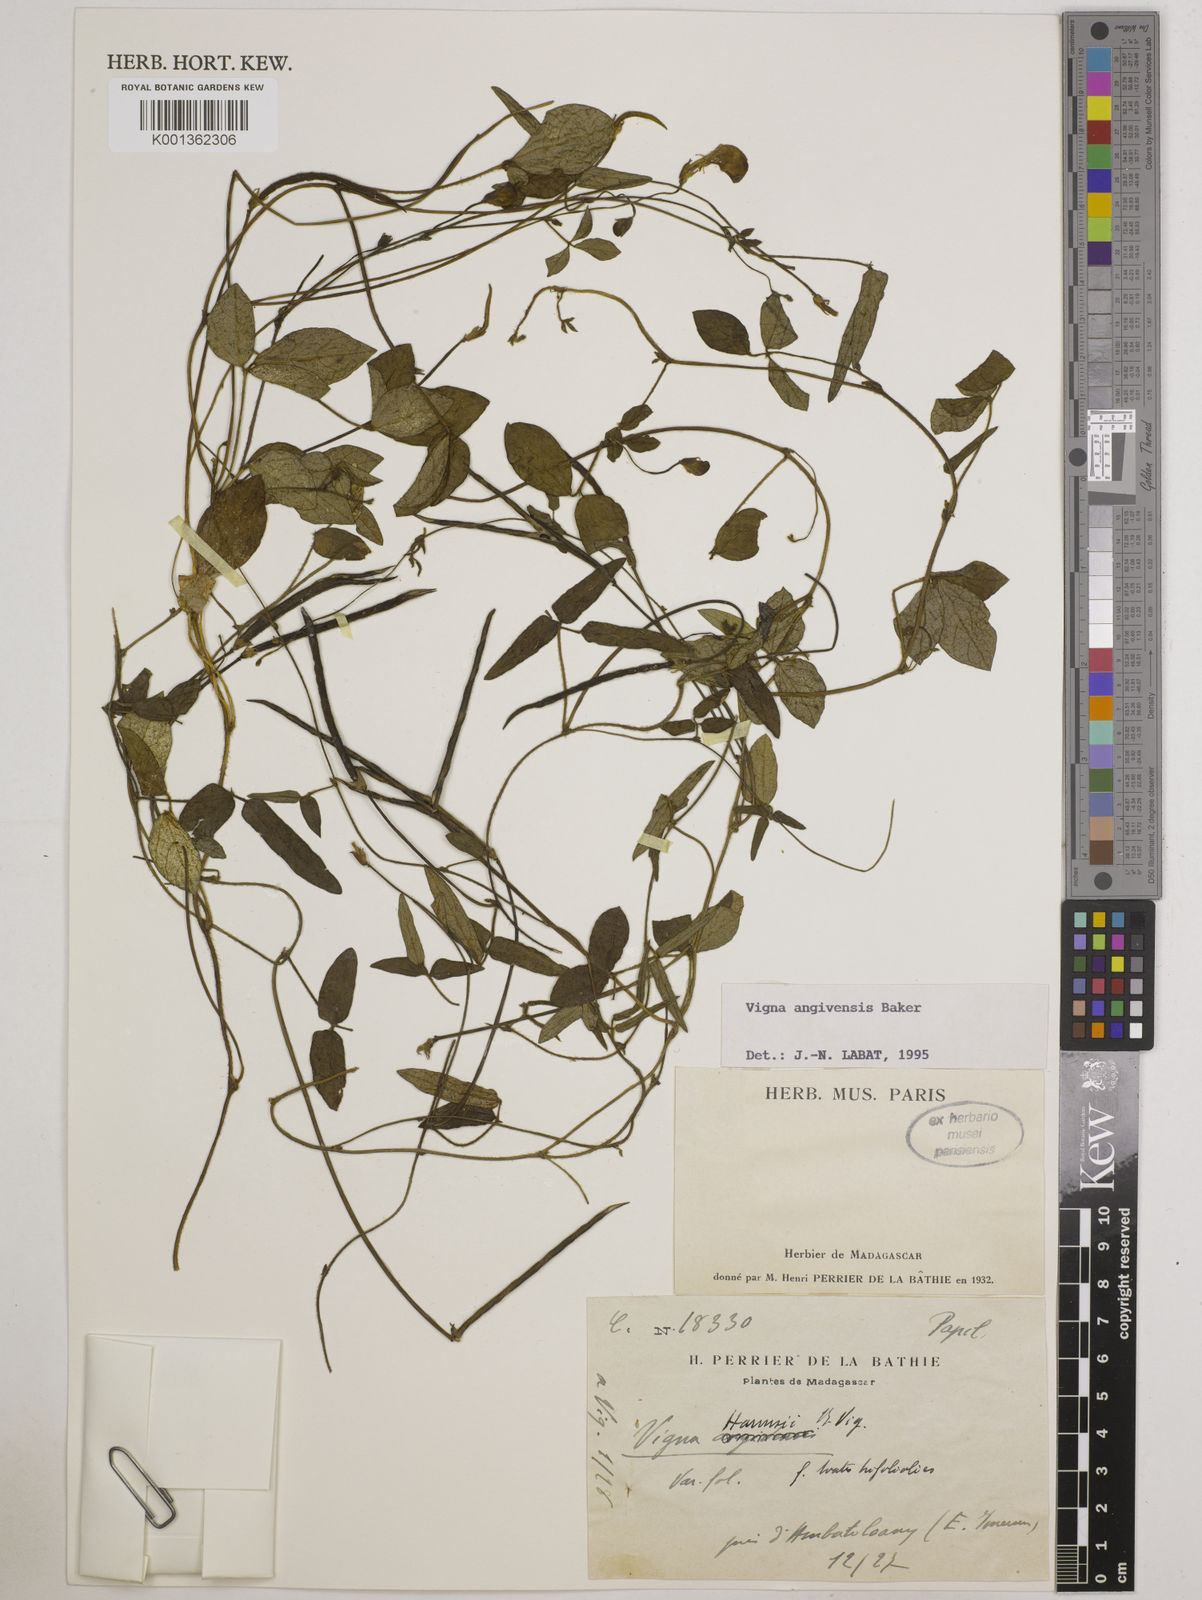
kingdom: Plantae
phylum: Tracheophyta
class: Magnoliopsida
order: Fabales
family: Fabaceae
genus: Vigna
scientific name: Vigna angivensis
